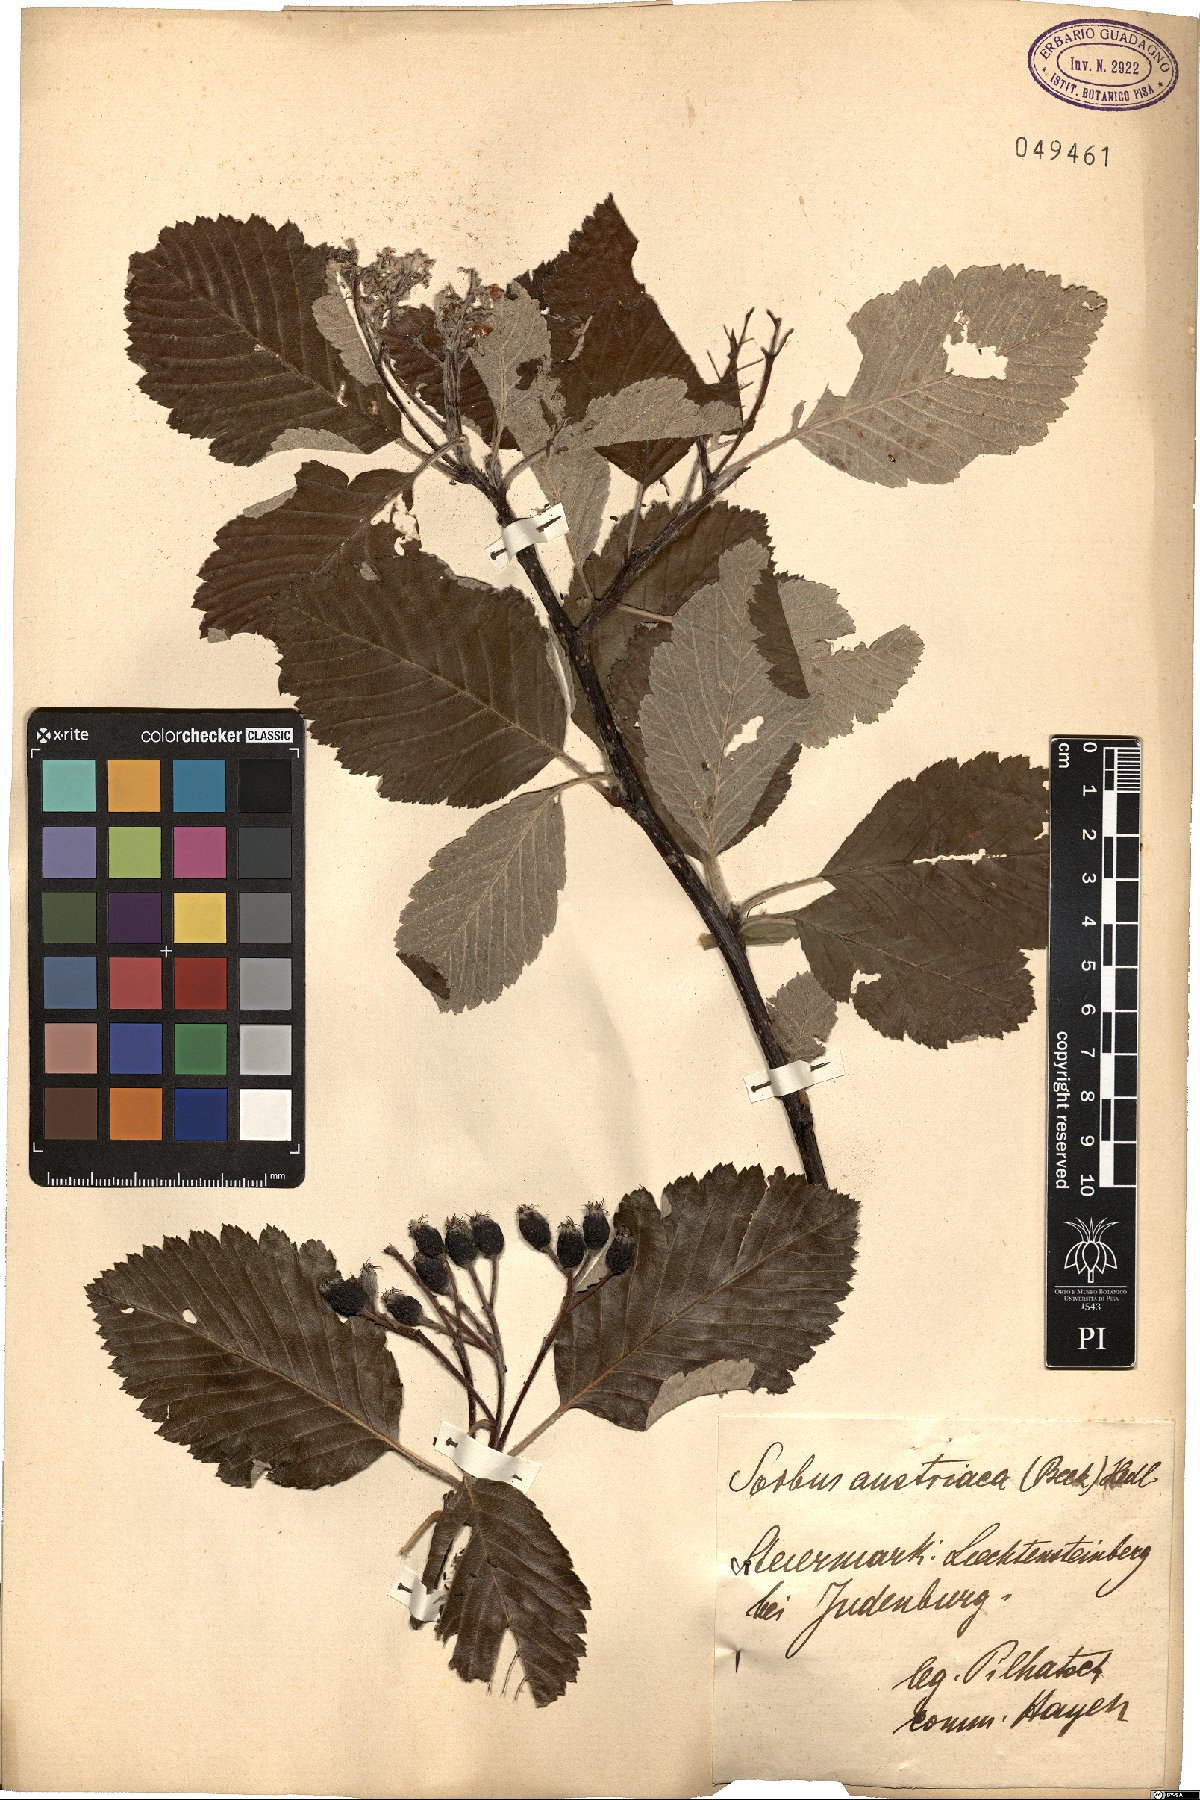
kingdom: Plantae
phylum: Tracheophyta
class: Magnoliopsida
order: Rosales
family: Rosaceae
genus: Hedlundia
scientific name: Hedlundia austriaca
